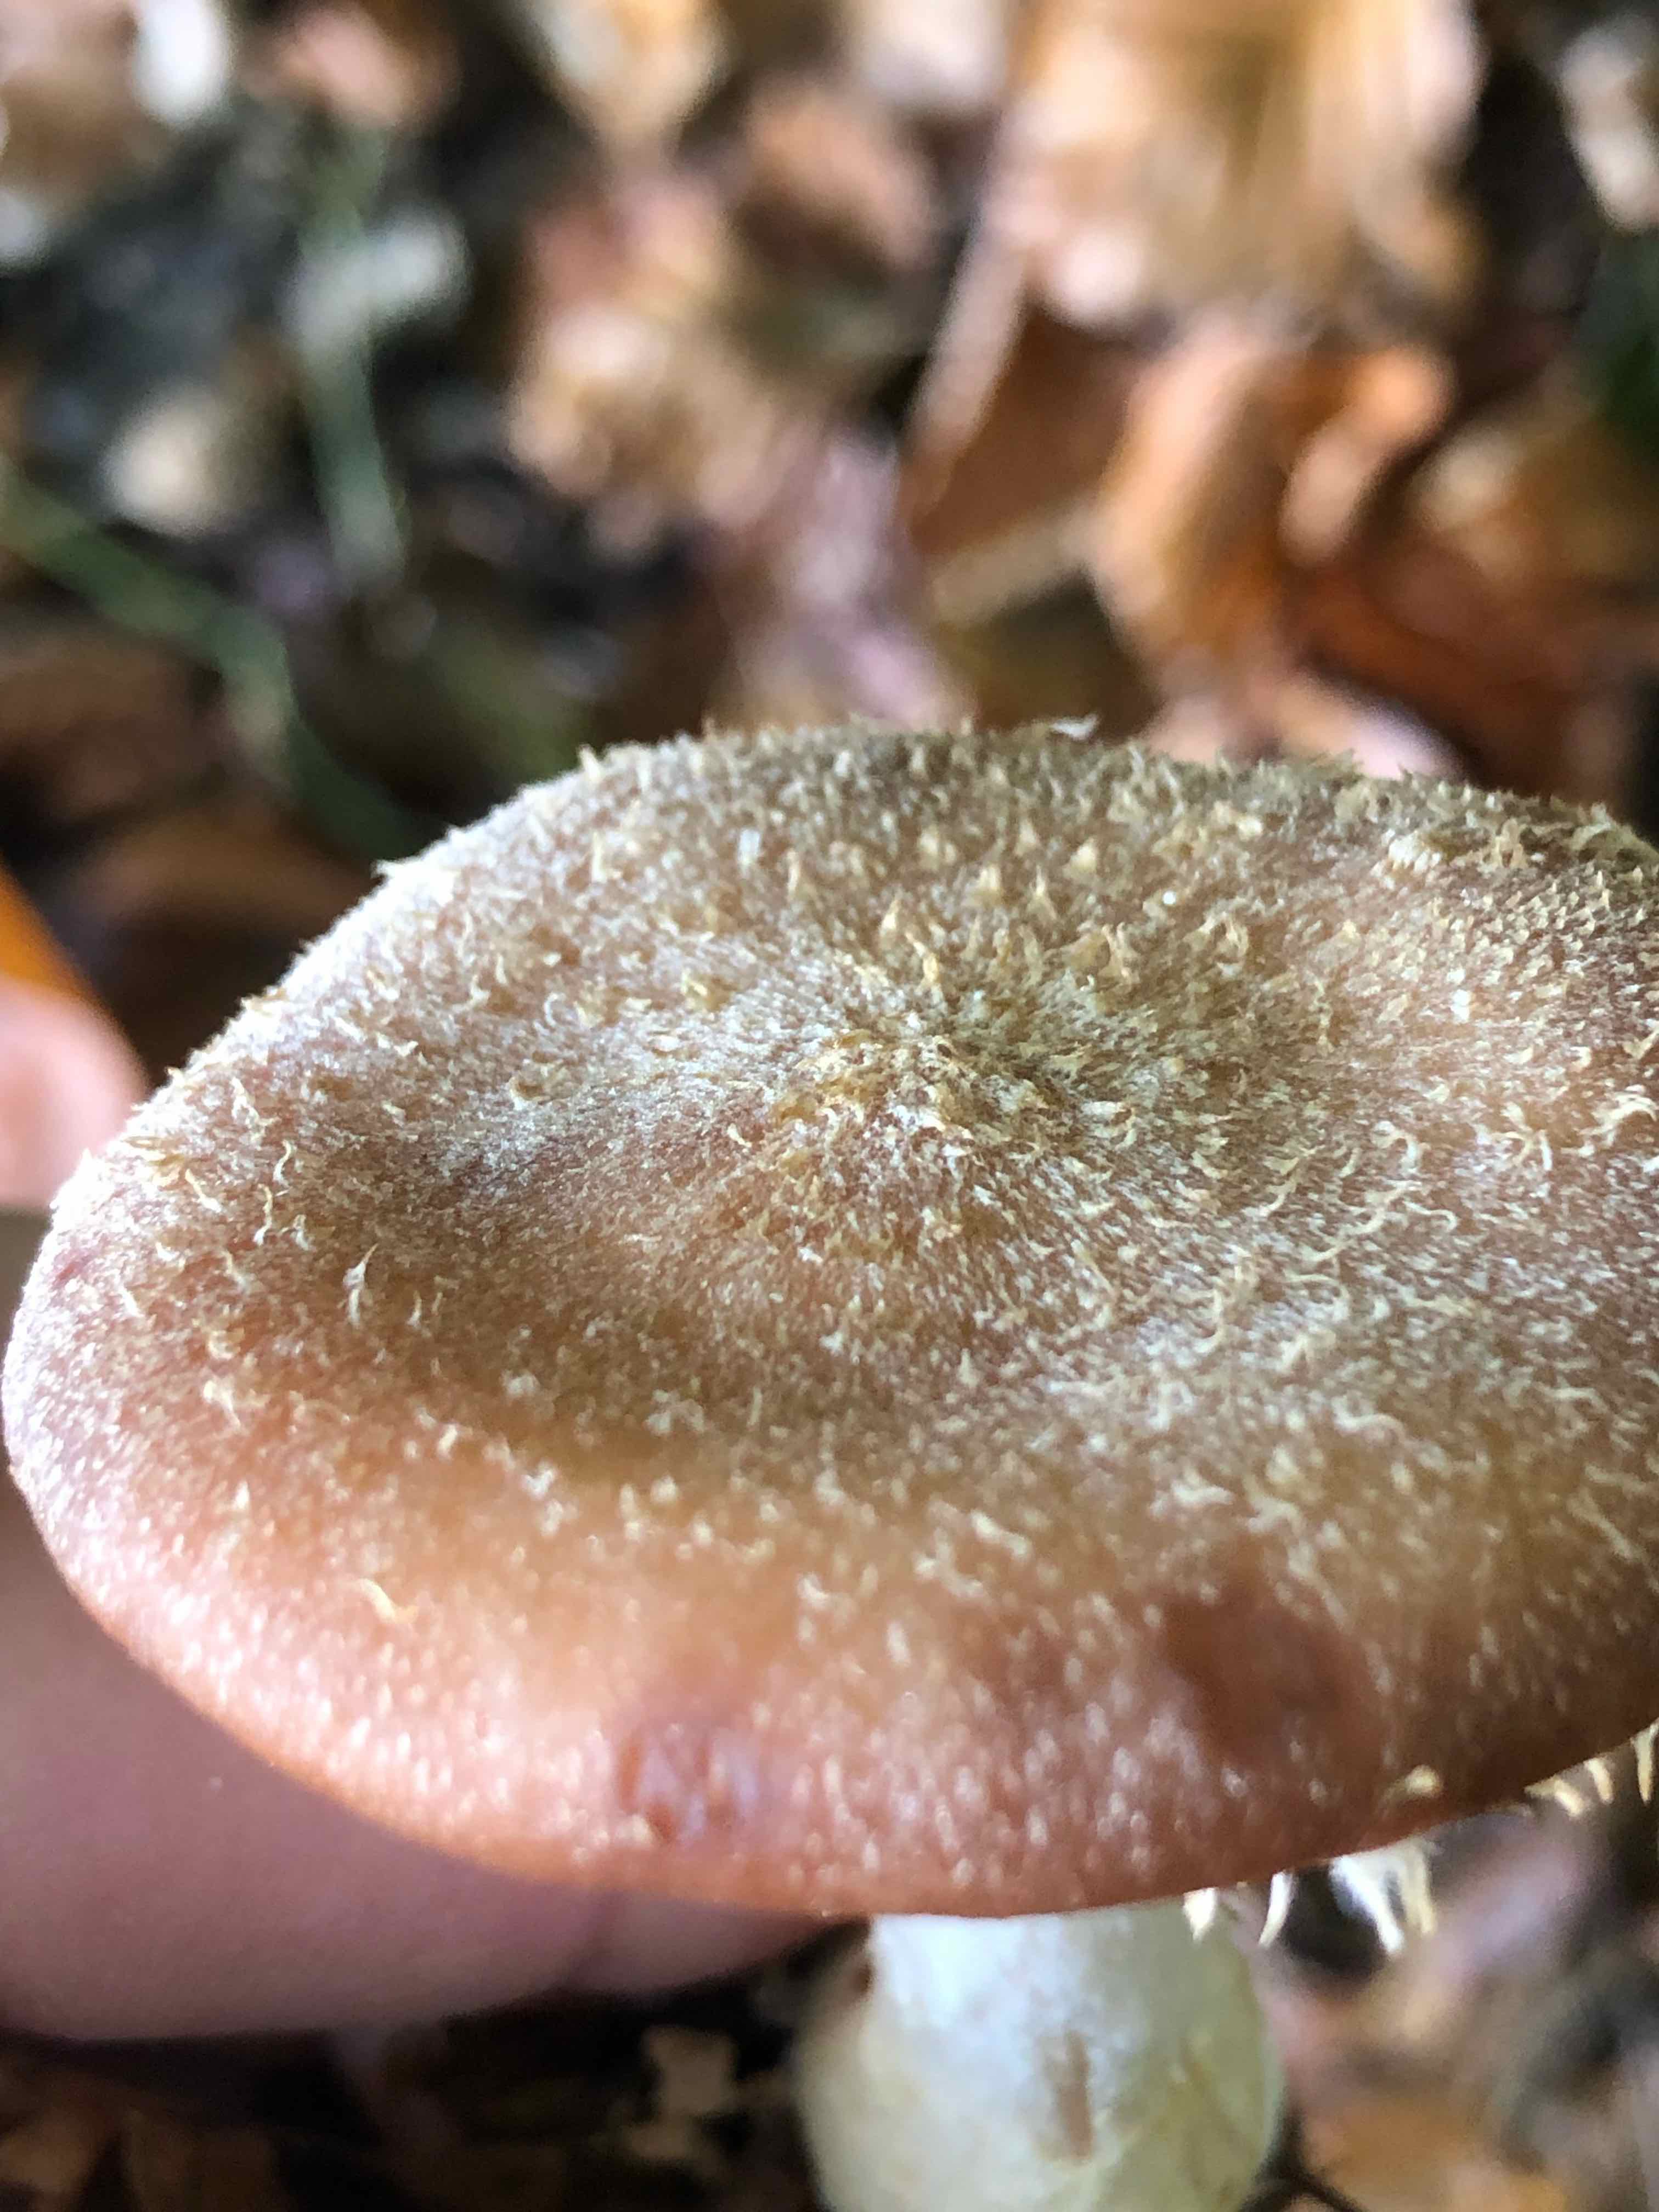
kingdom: Fungi
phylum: Basidiomycota
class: Agaricomycetes
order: Agaricales
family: Physalacriaceae
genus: Armillaria
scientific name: Armillaria lutea
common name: køllestokket honningsvamp
